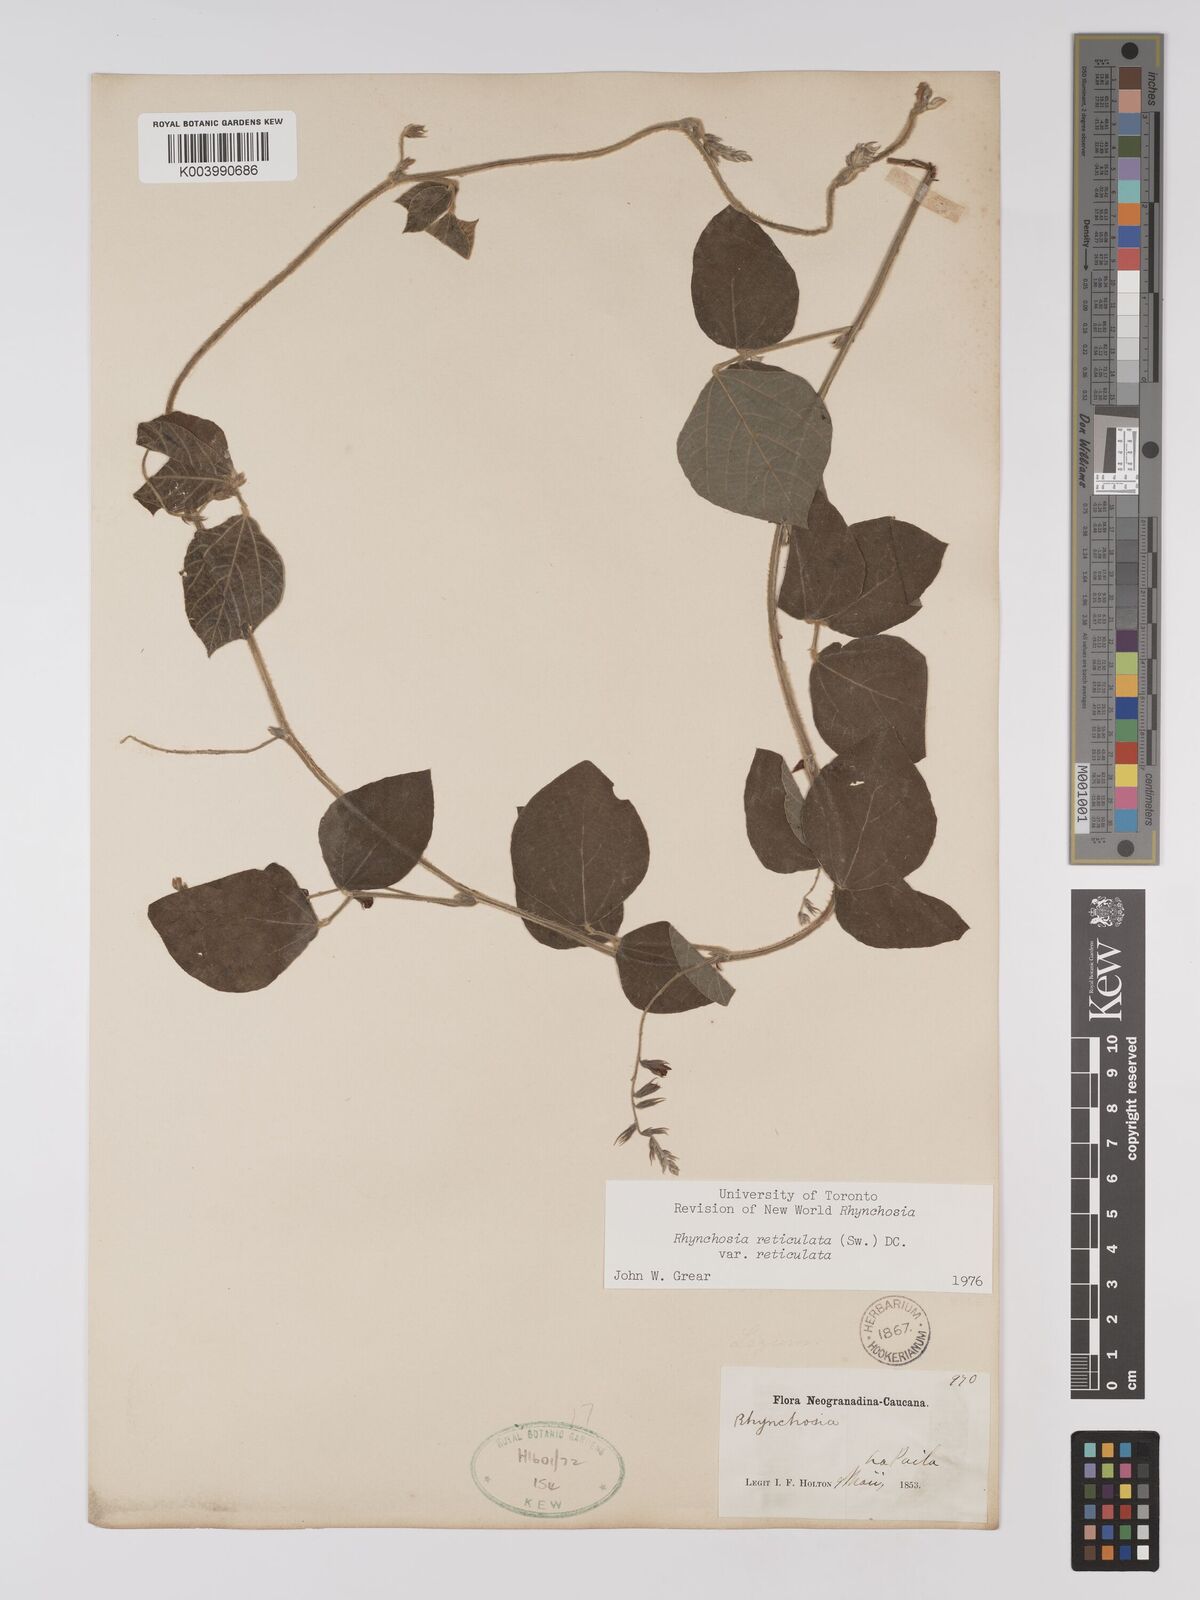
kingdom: Plantae
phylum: Tracheophyta
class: Magnoliopsida
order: Fabales
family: Fabaceae
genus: Rhynchosia
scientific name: Rhynchosia reticulata
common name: Pea withe
